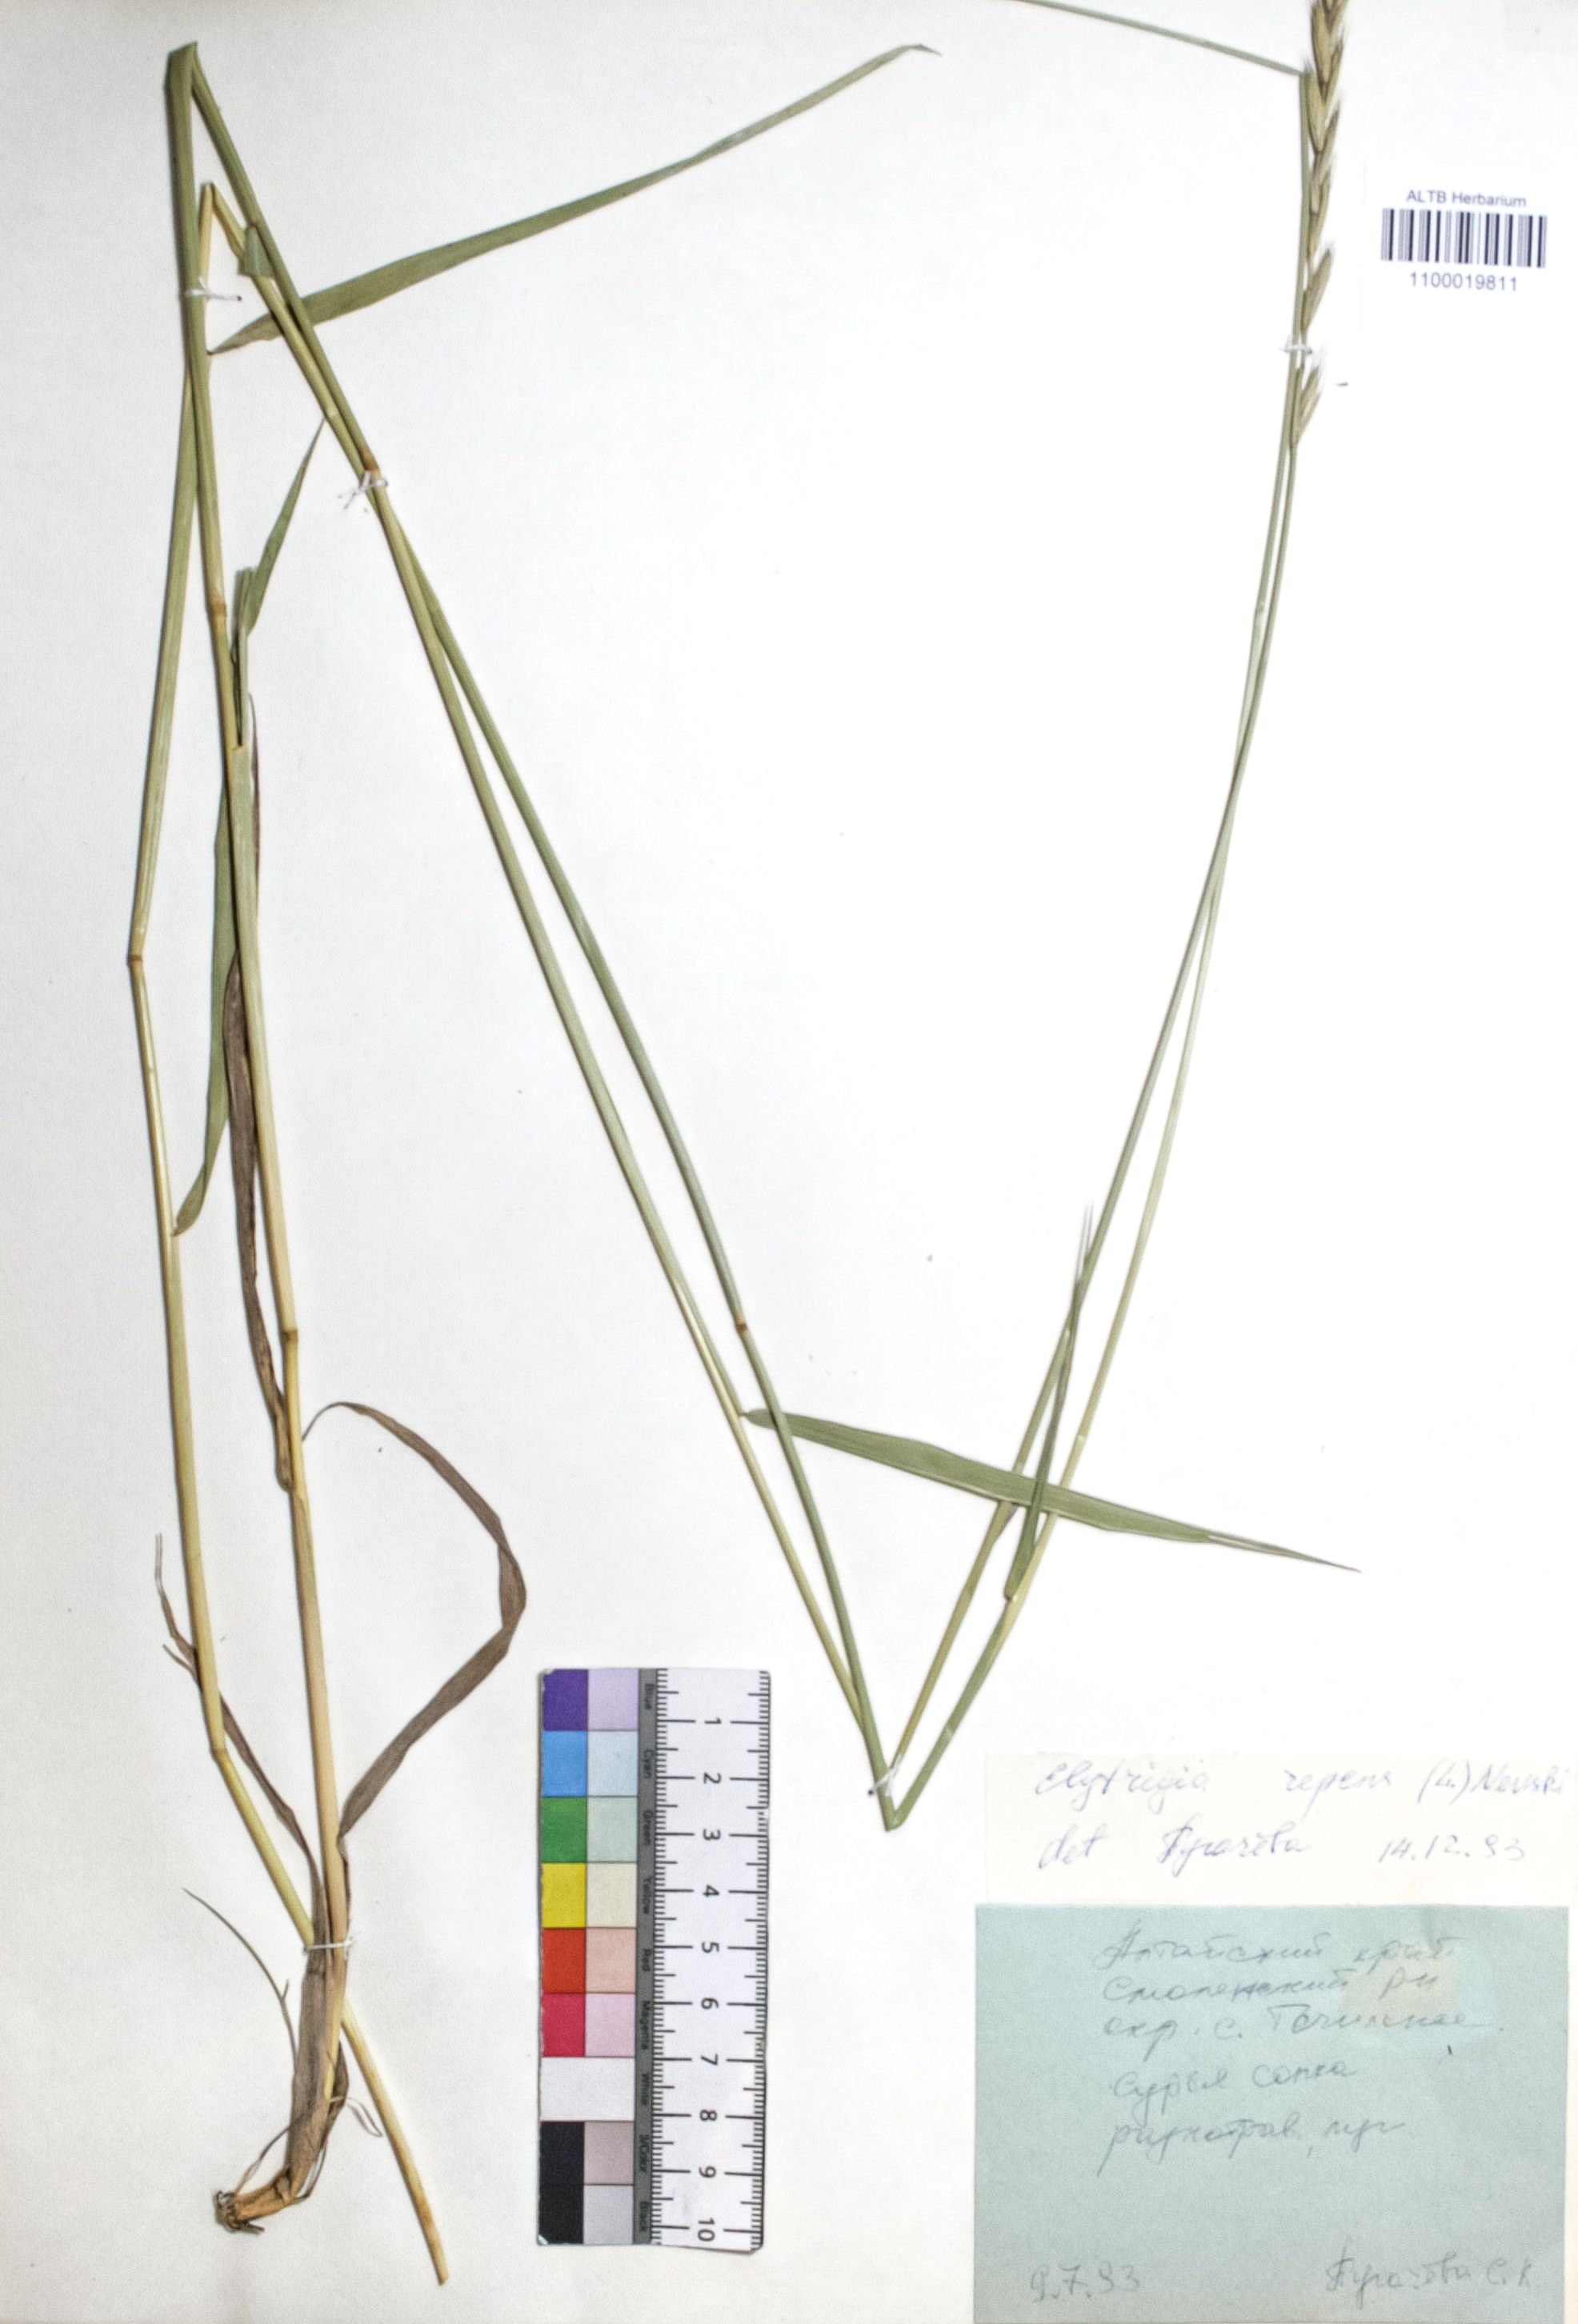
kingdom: Plantae
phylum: Tracheophyta
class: Liliopsida
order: Poales
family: Poaceae
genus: Elymus
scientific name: Elymus repens
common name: Quackgrass
